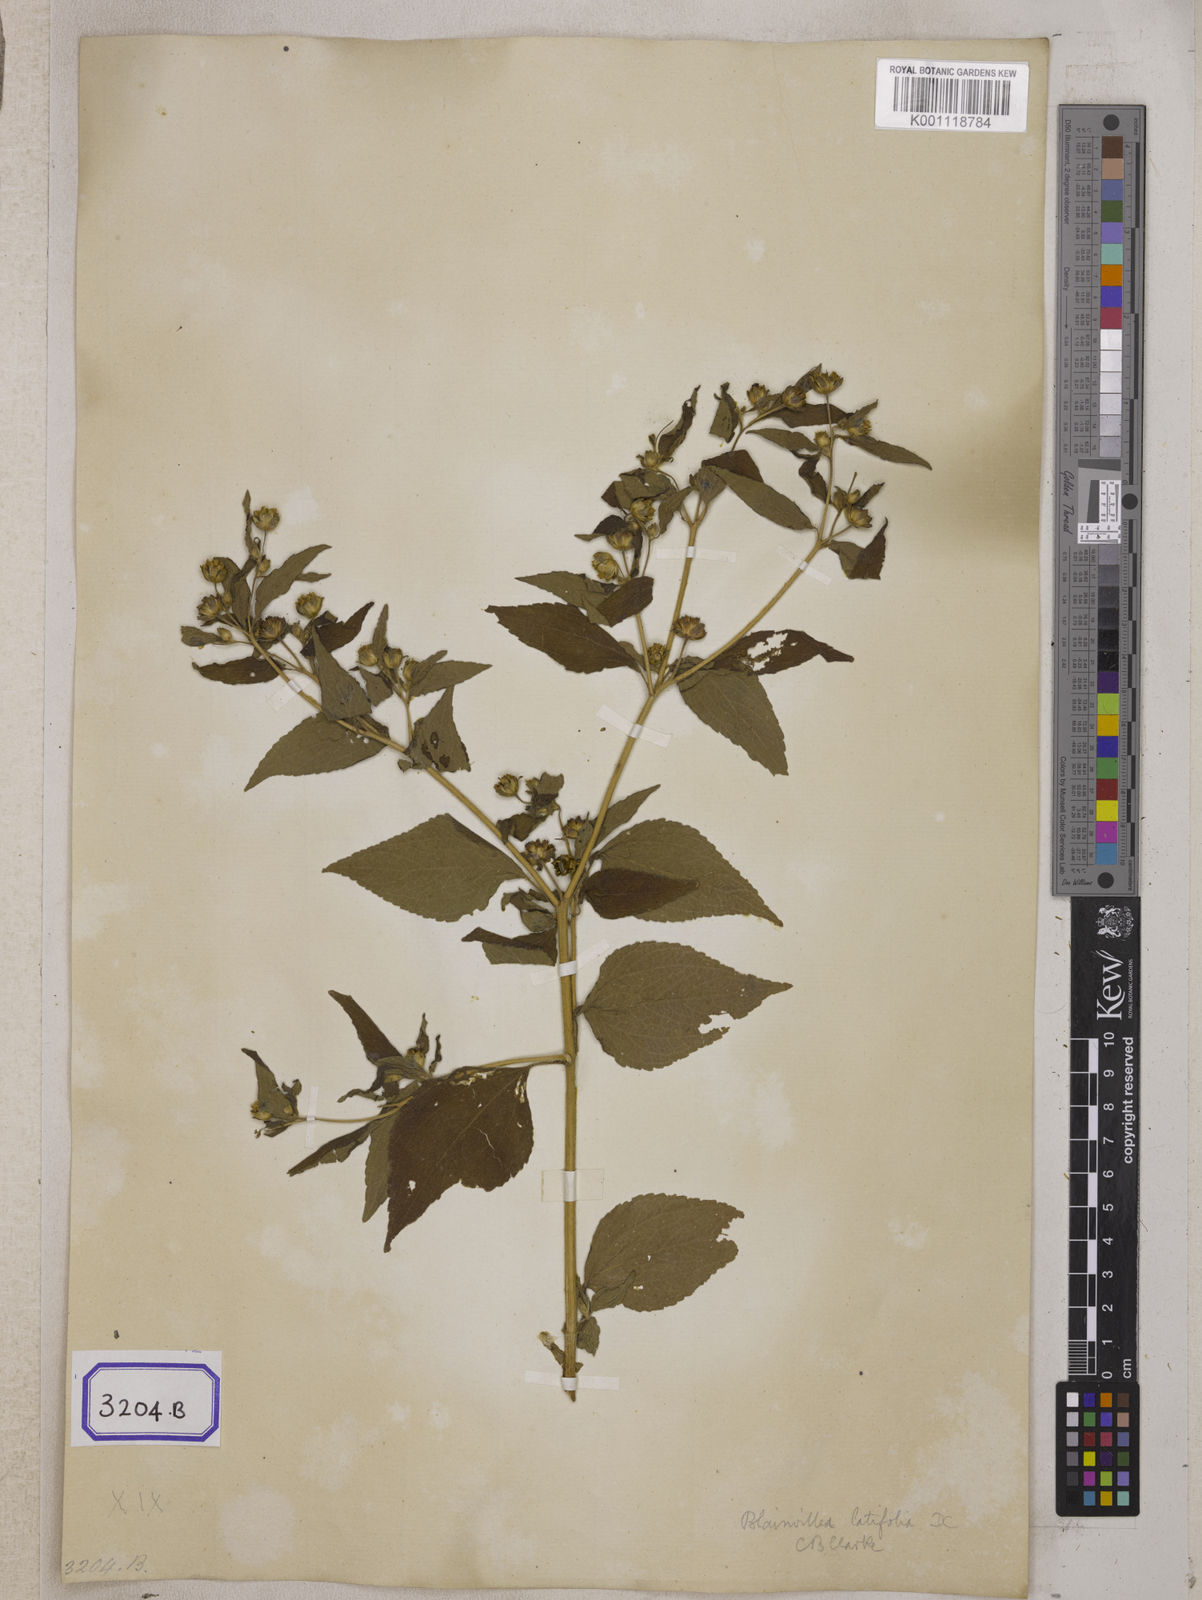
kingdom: Plantae
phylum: Tracheophyta
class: Magnoliopsida
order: Asterales
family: Asteraceae
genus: Blainvillea
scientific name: Blainvillea acmella
